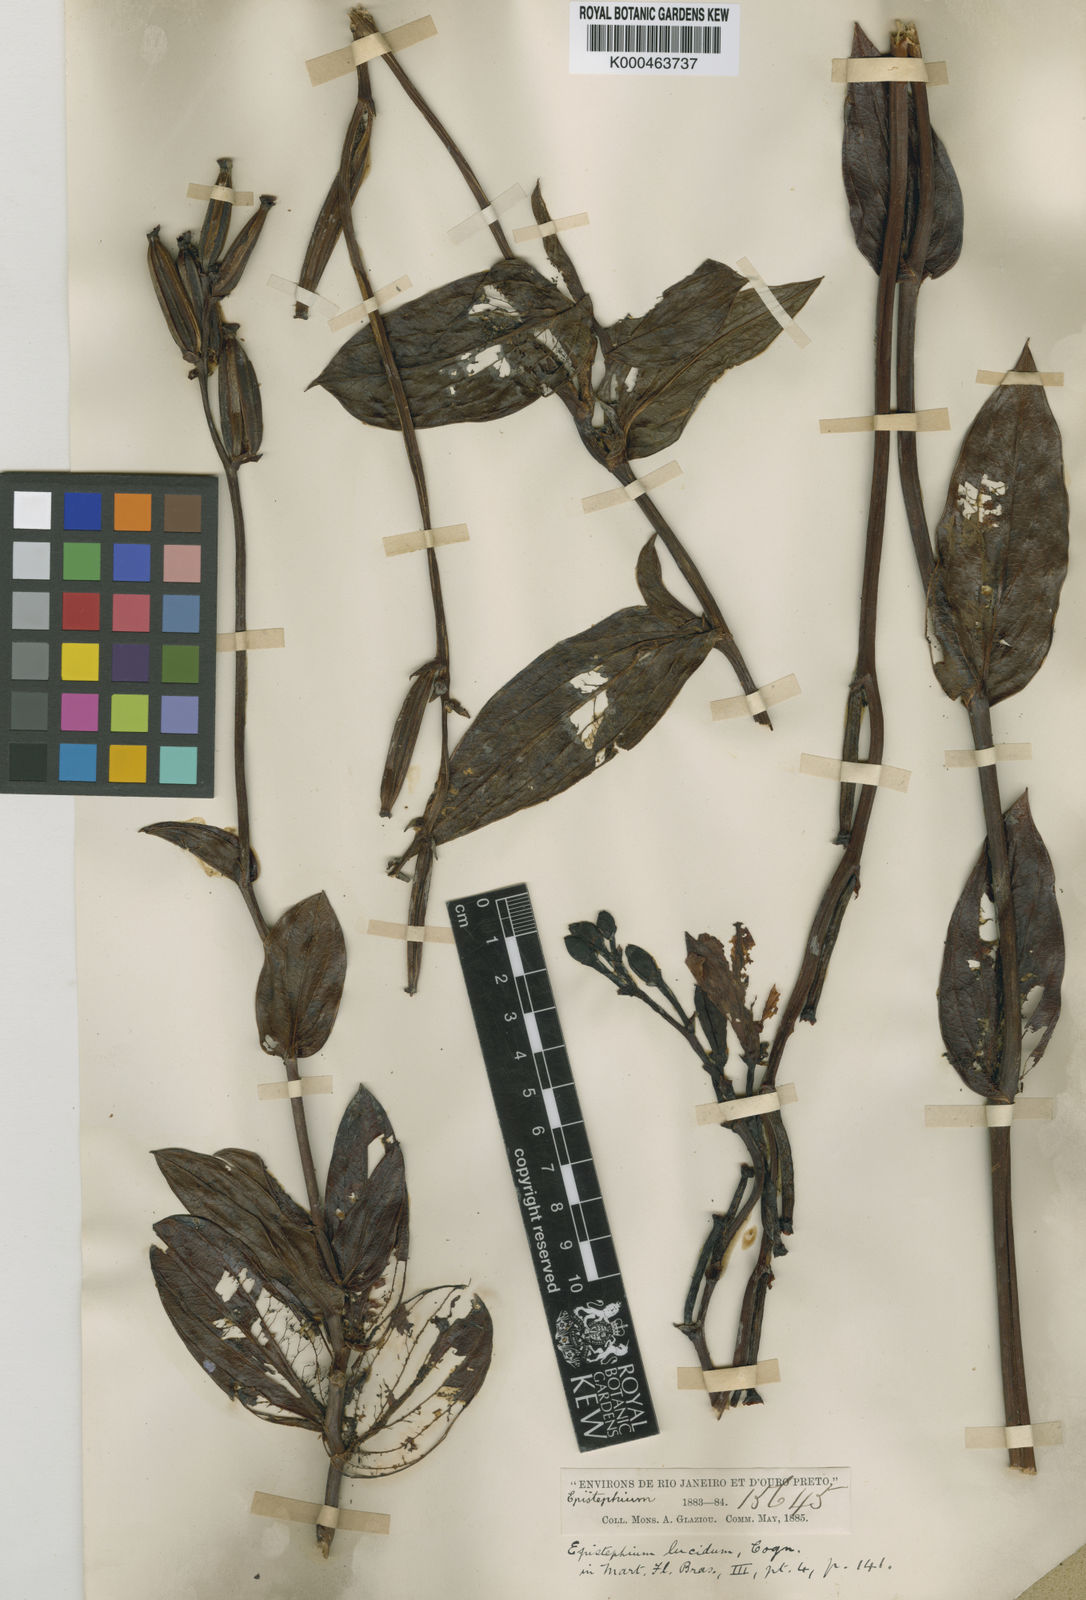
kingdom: Plantae
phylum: Tracheophyta
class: Liliopsida
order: Asparagales
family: Orchidaceae
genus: Epistephium
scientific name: Epistephium williamsii
